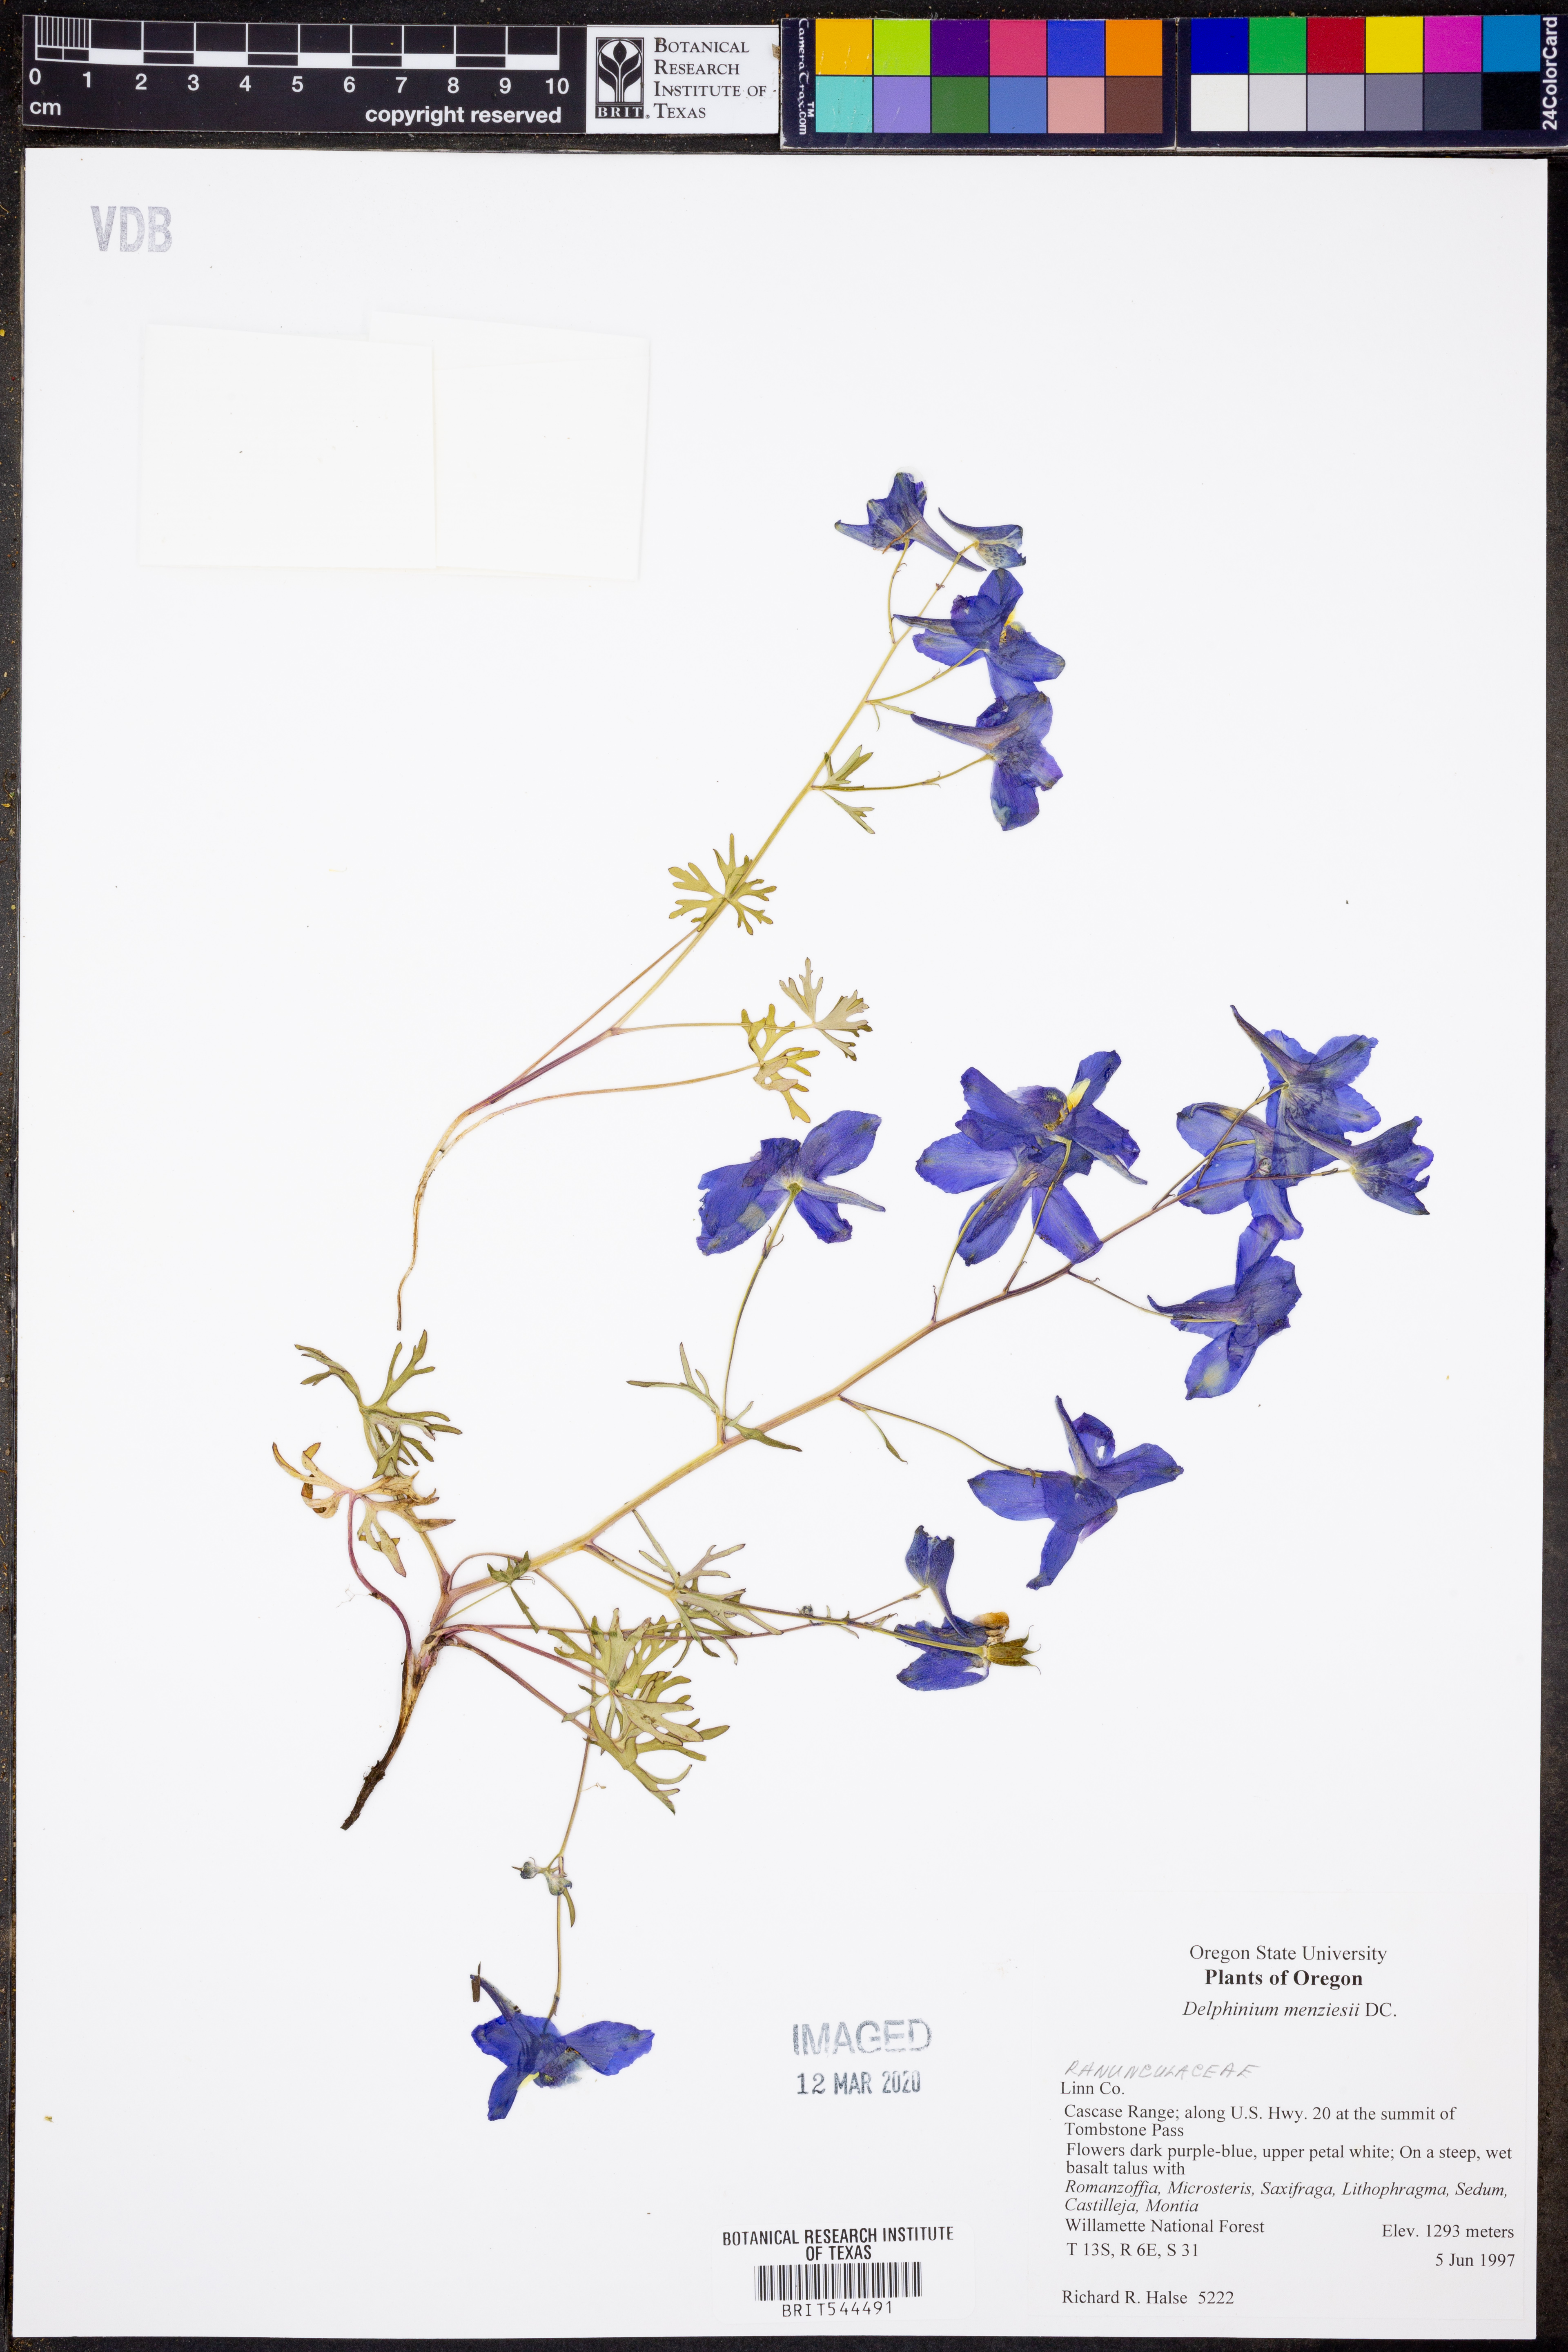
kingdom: Plantae
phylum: Tracheophyta
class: Magnoliopsida
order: Ranunculales
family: Ranunculaceae
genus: Delphinium
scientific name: Delphinium menziesii
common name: Menzies's larkspur
